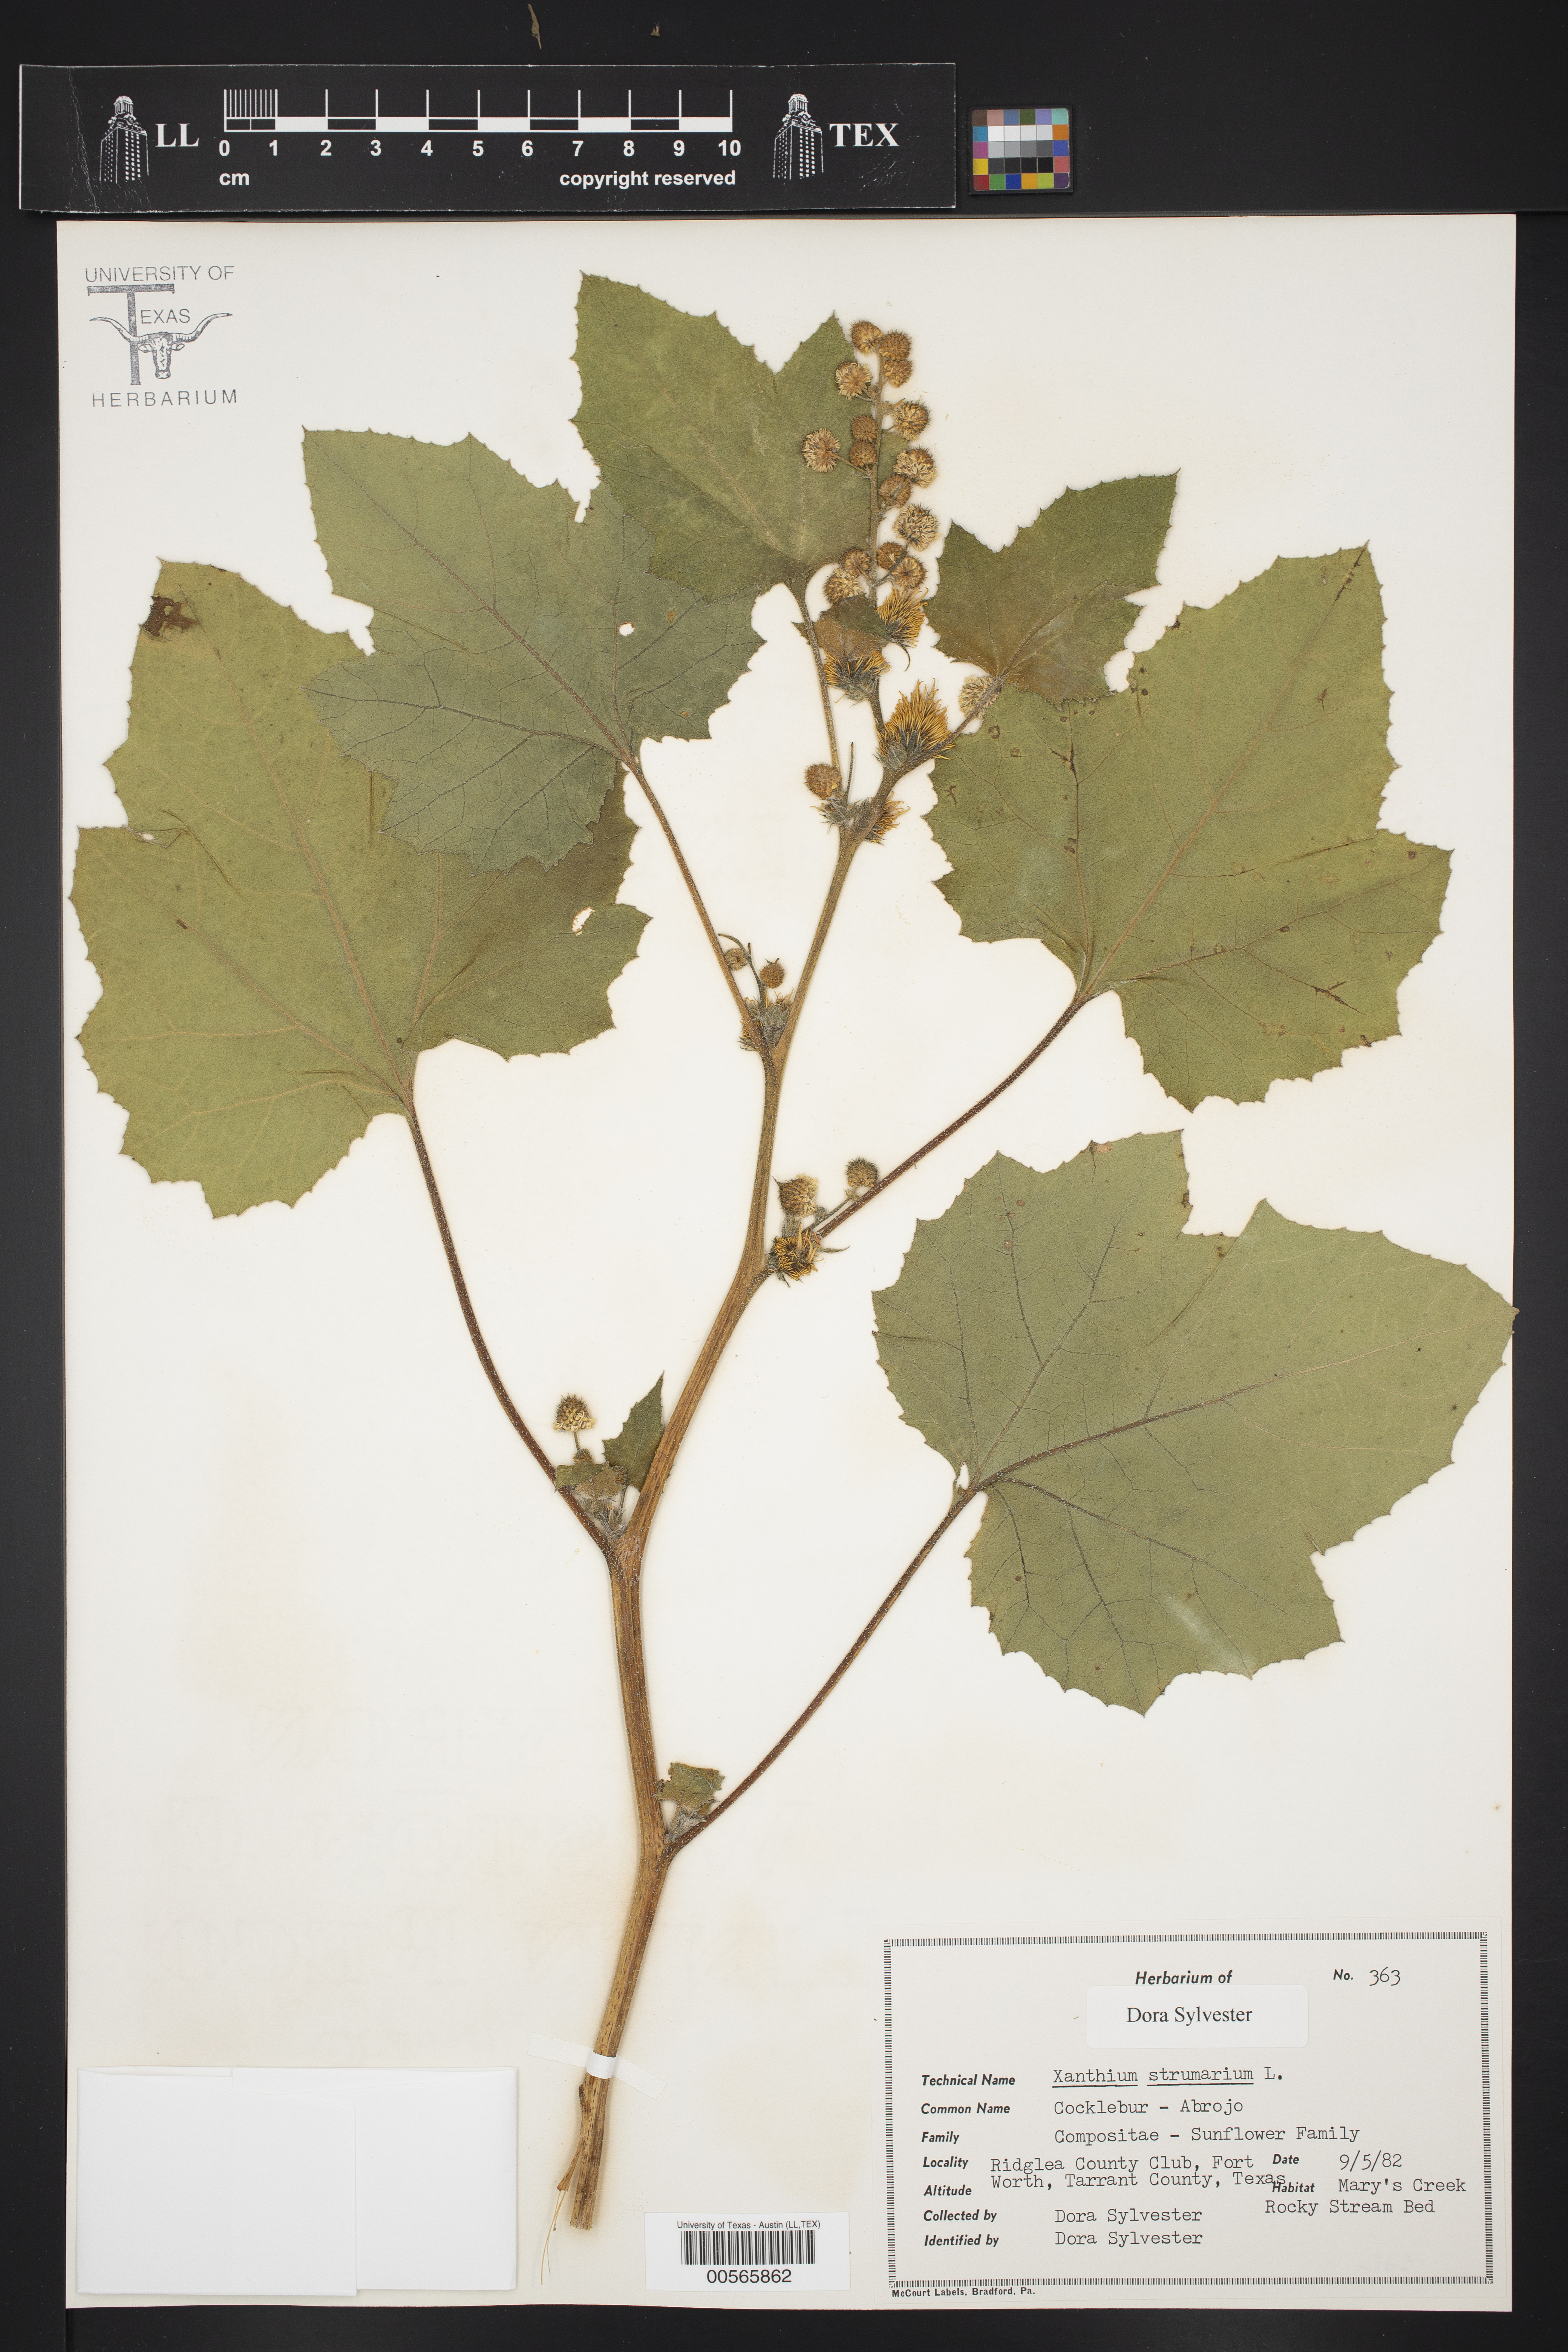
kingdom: Plantae
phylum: Tracheophyta
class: Magnoliopsida
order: Asterales
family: Asteraceae
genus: Xanthium
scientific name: Xanthium strumarium
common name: Rough cocklebur
